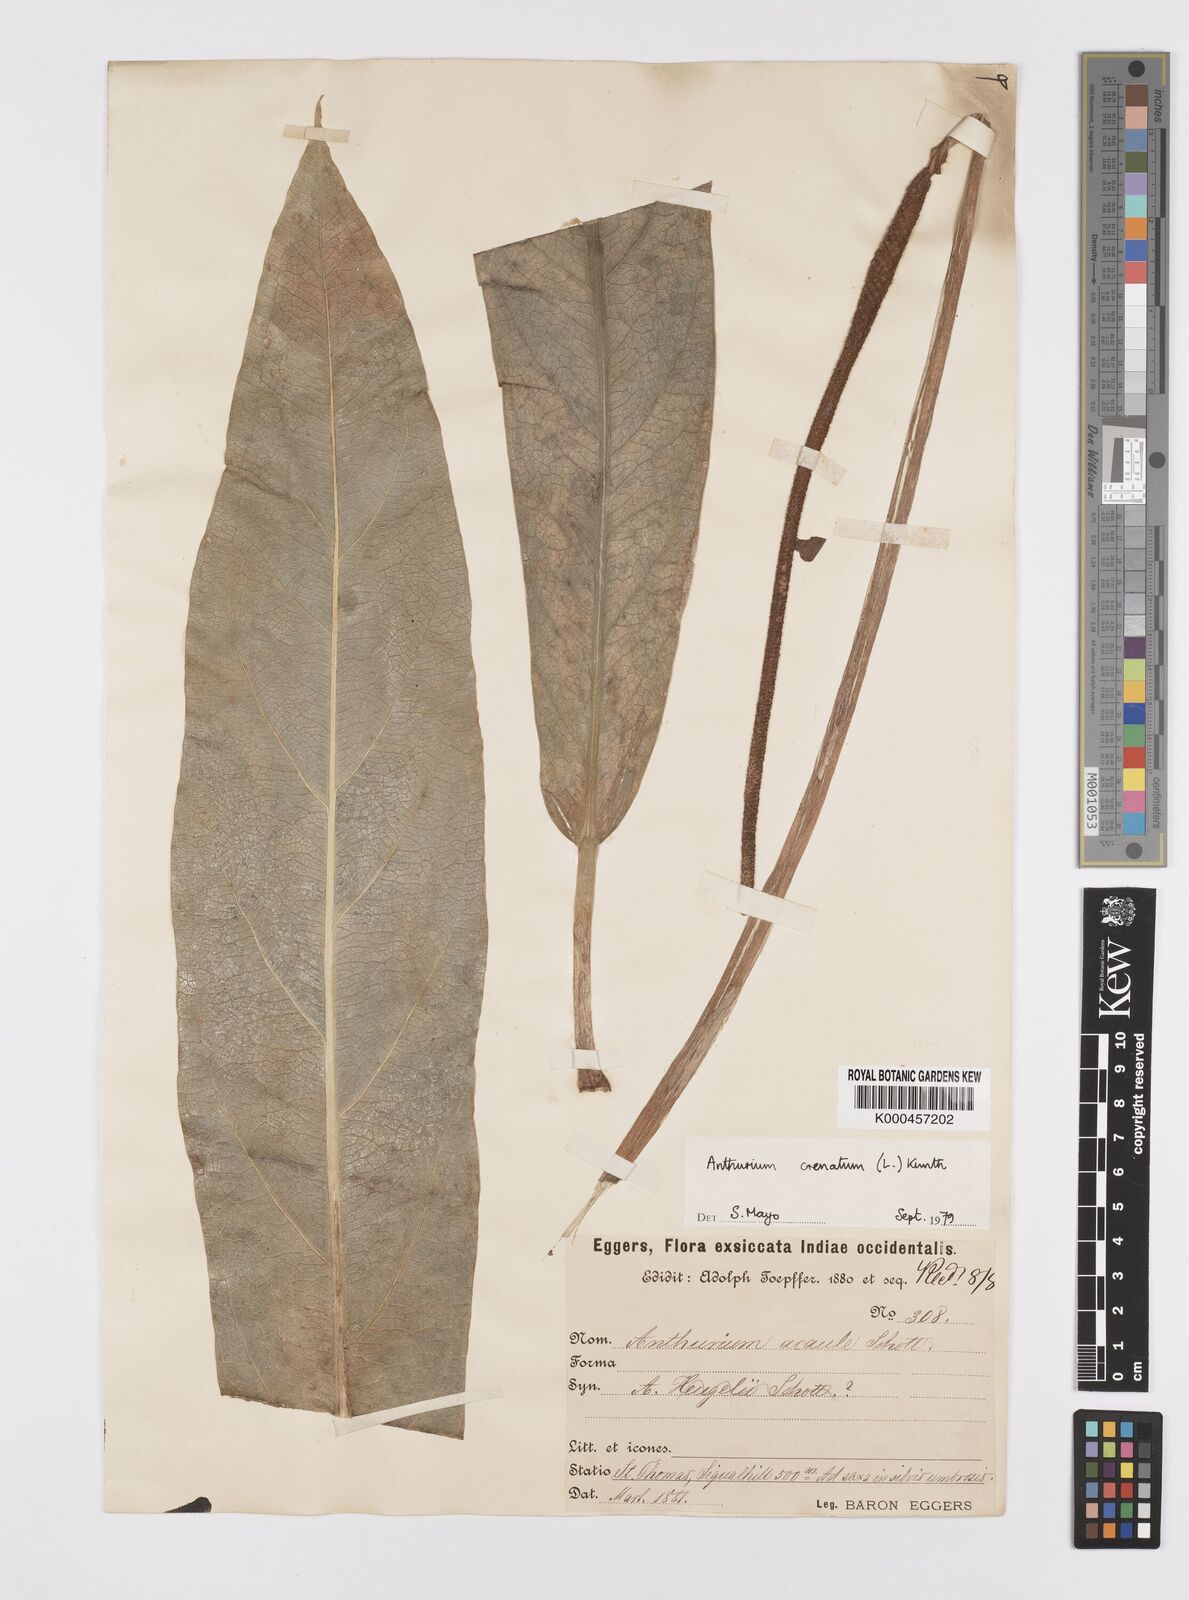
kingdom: Plantae
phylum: Tracheophyta
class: Liliopsida
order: Alismatales
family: Araceae
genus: Anthurium
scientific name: Anthurium crenatum
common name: Scalloped laceleaf
